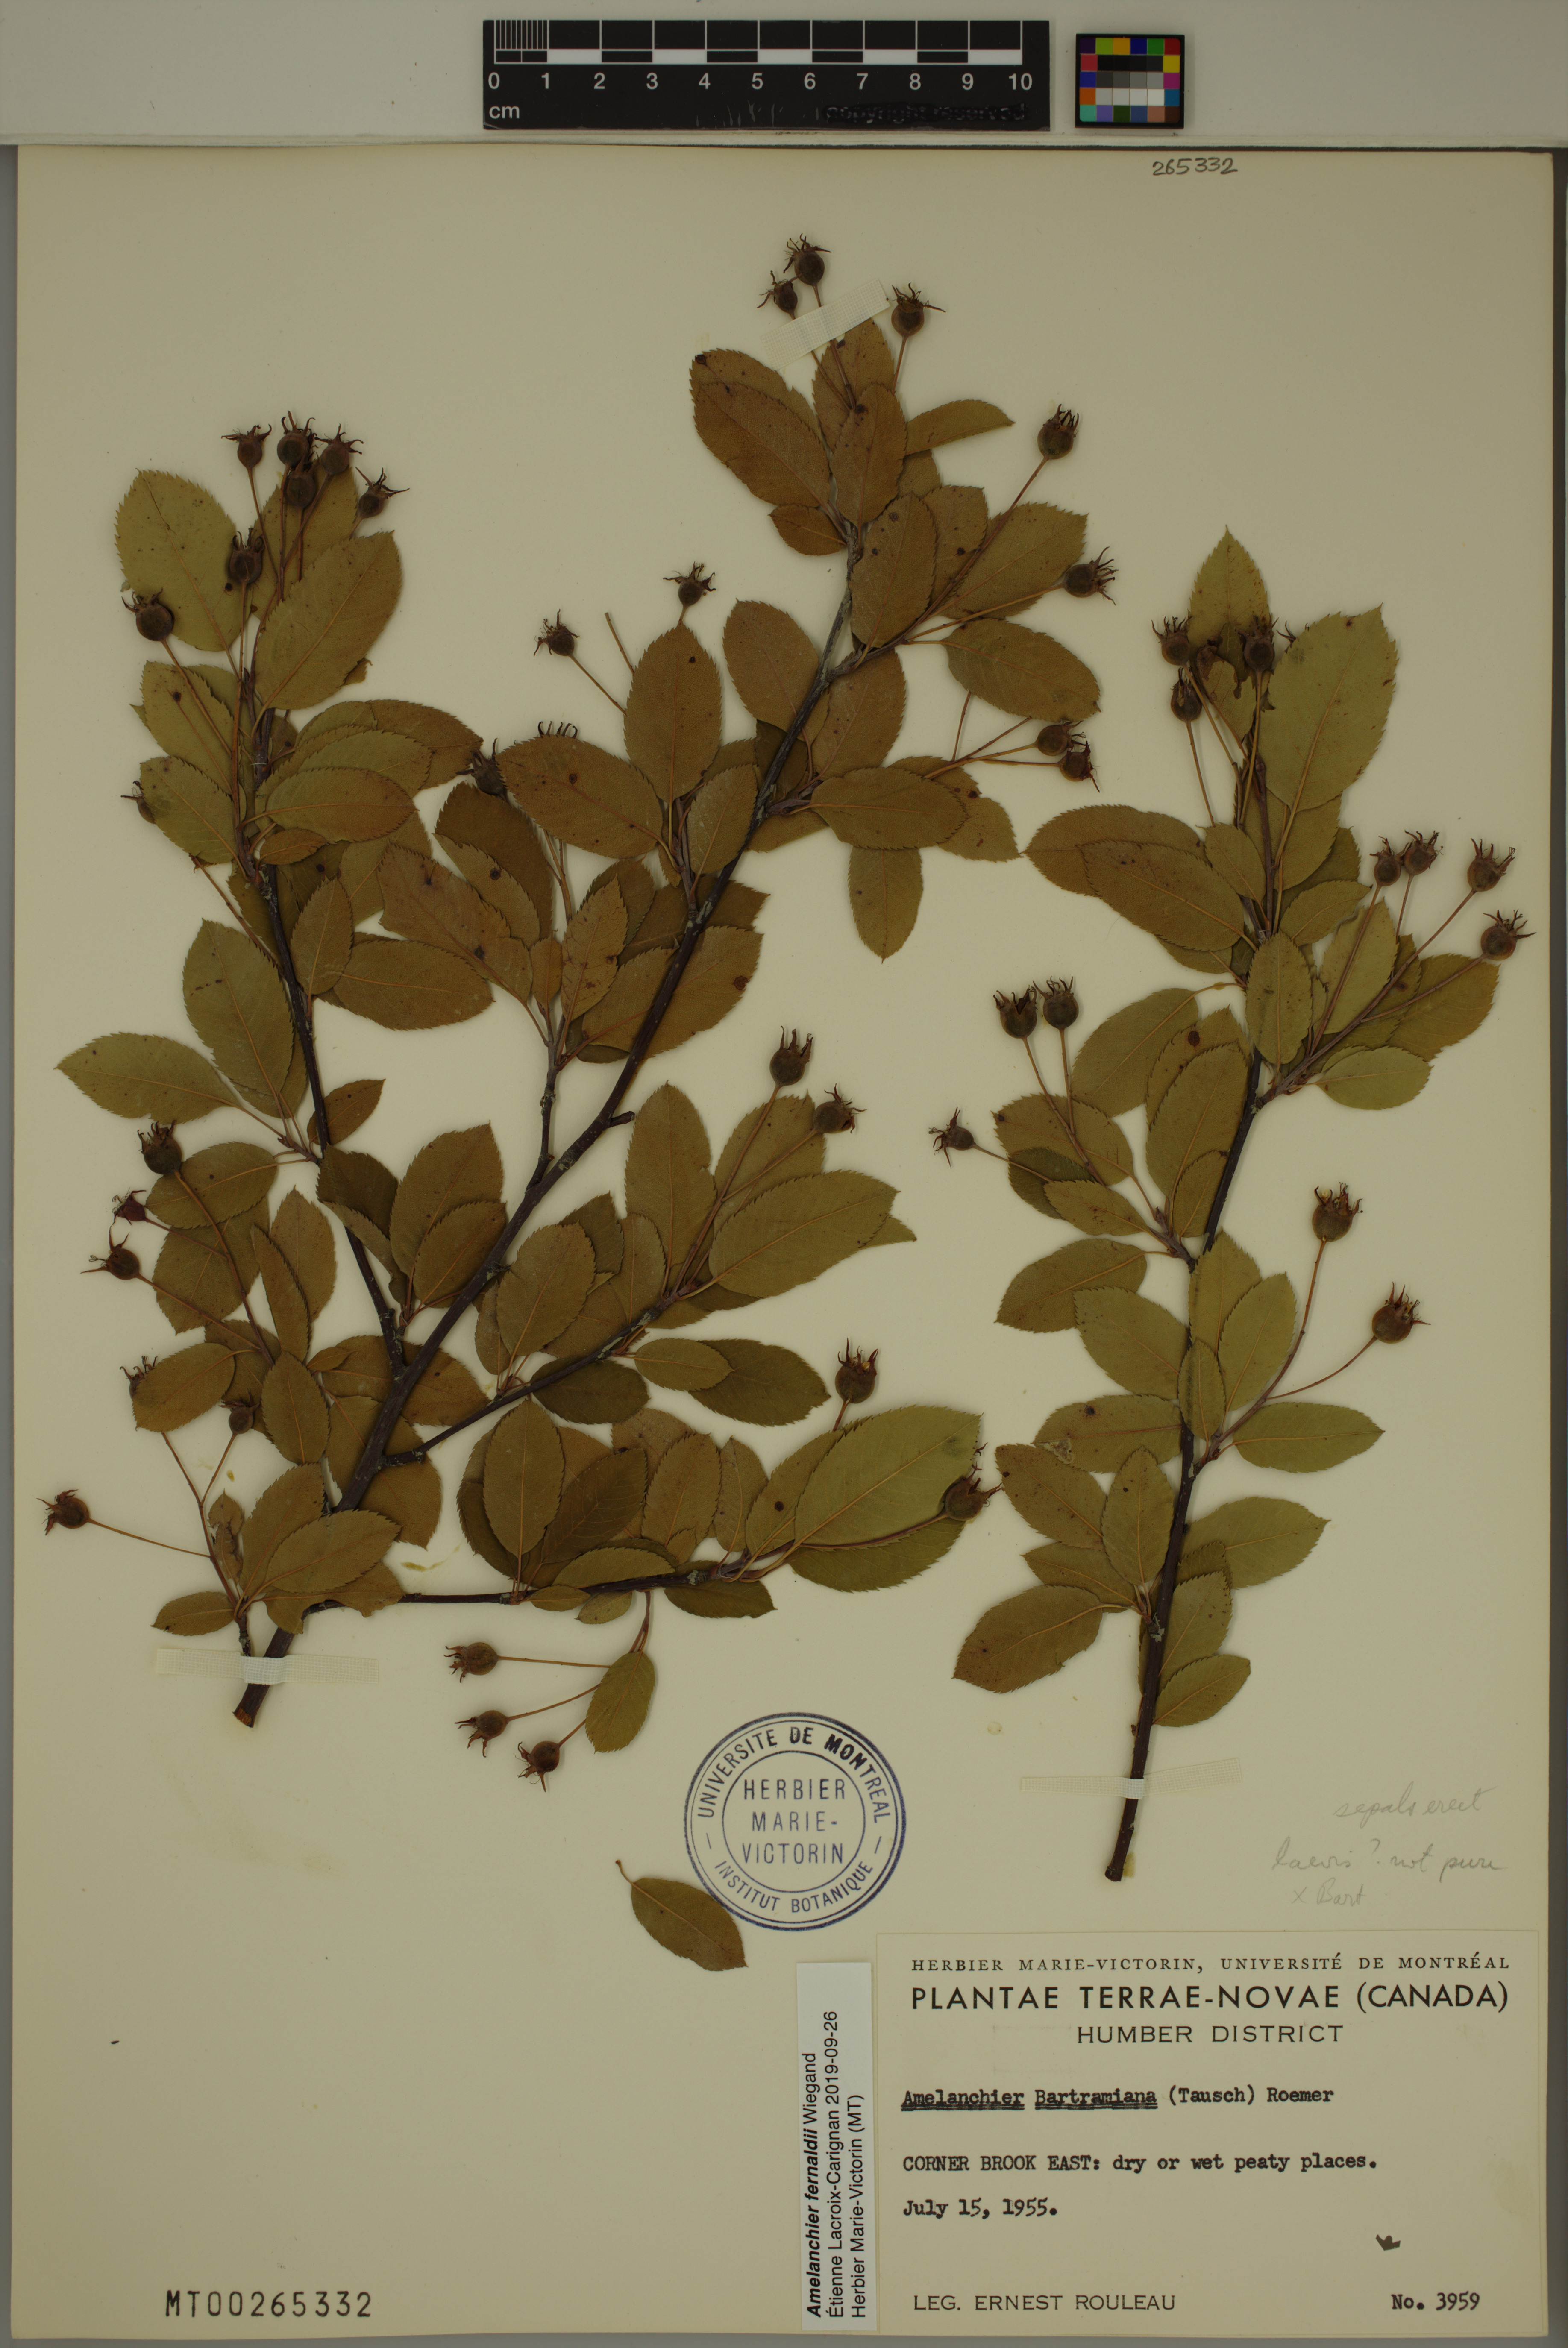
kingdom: Plantae
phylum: Tracheophyta
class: Magnoliopsida
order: Rosales
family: Rosaceae
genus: Amelanchier
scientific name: Amelanchier canadensis
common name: Thicket serviceberry
